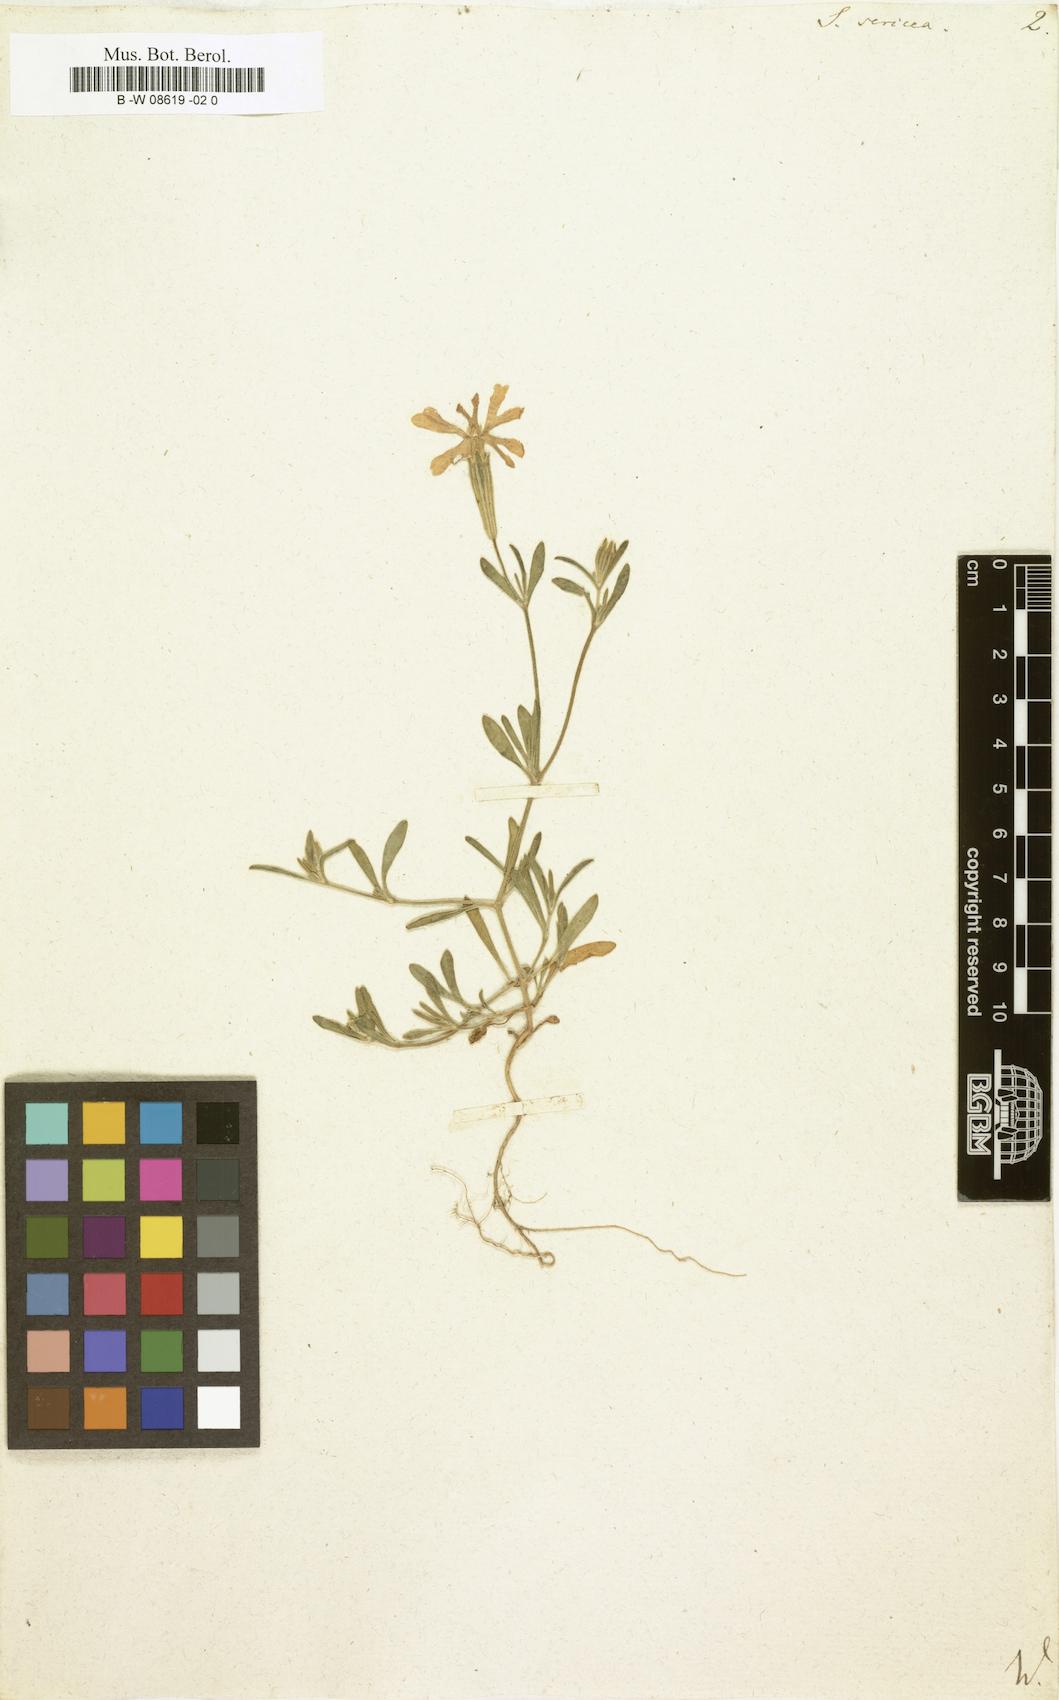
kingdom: Plantae
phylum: Tracheophyta
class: Magnoliopsida
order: Caryophyllales
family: Caryophyllaceae
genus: Silene
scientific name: Silene sericea
